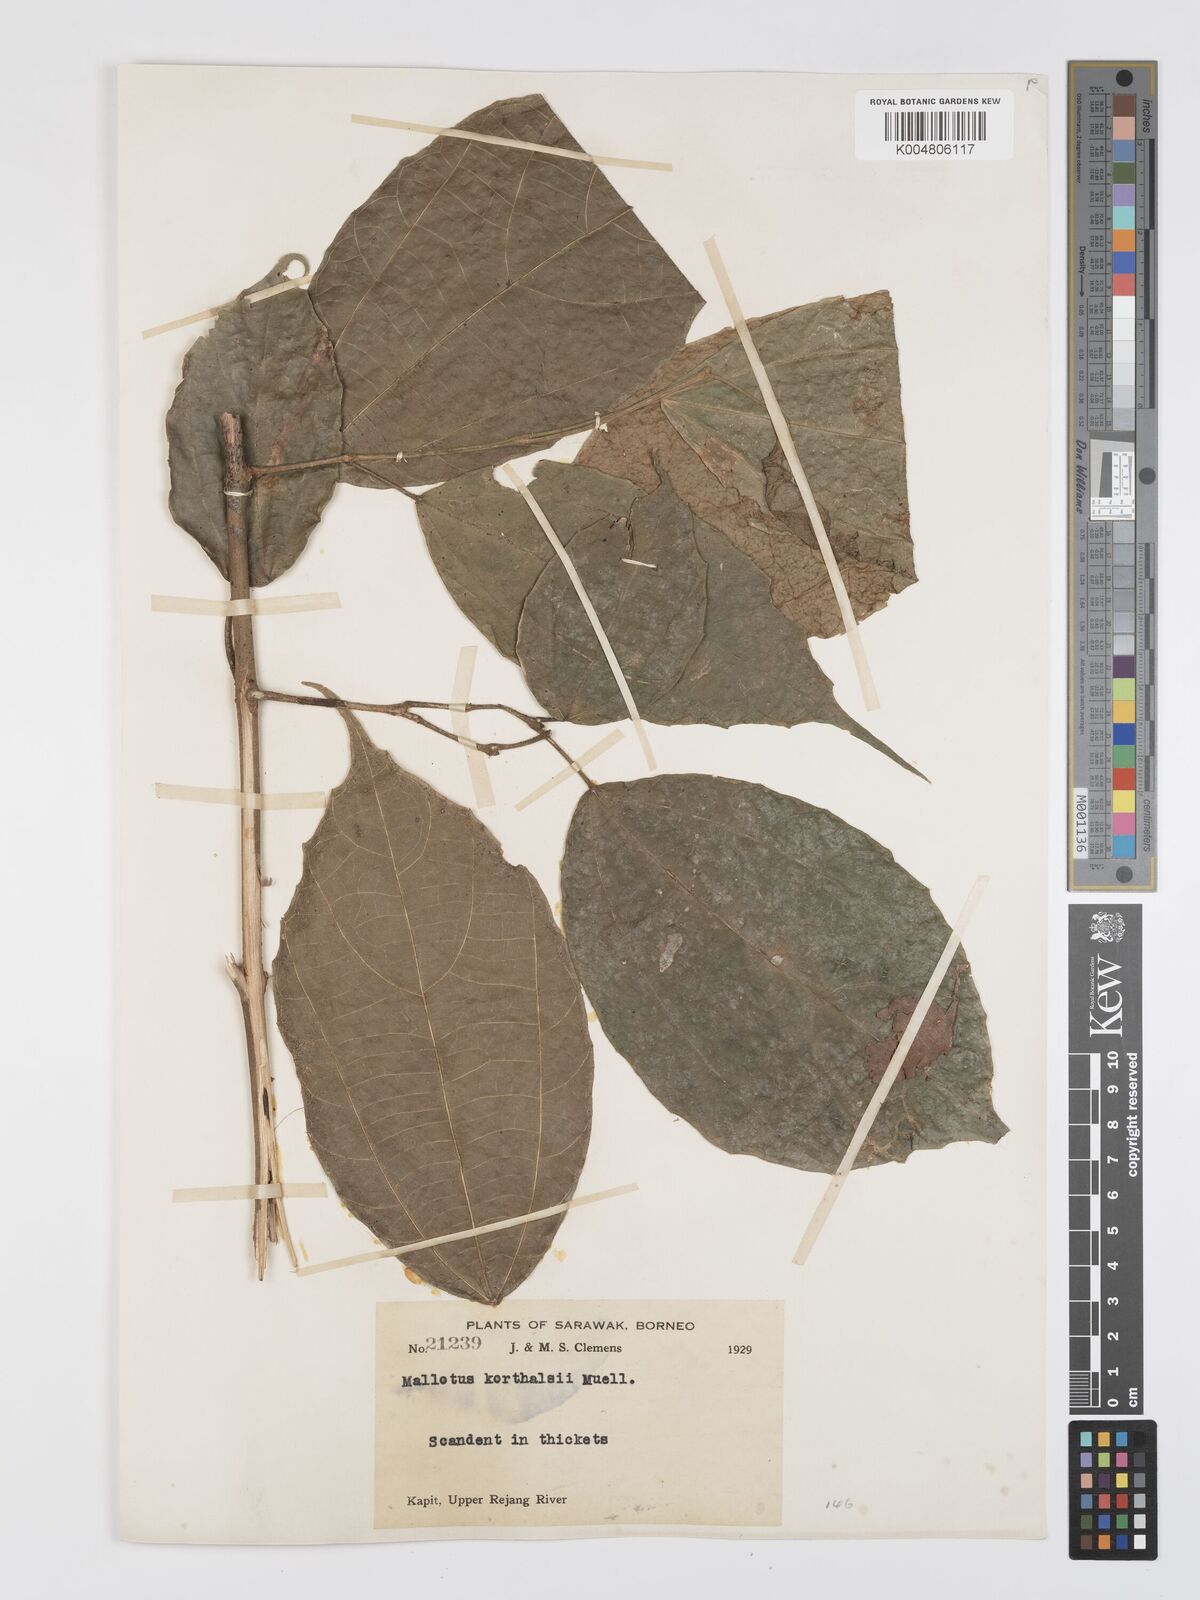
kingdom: Plantae
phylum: Tracheophyta
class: Magnoliopsida
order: Malpighiales
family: Euphorbiaceae
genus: Mallotus
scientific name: Mallotus korthalsii
